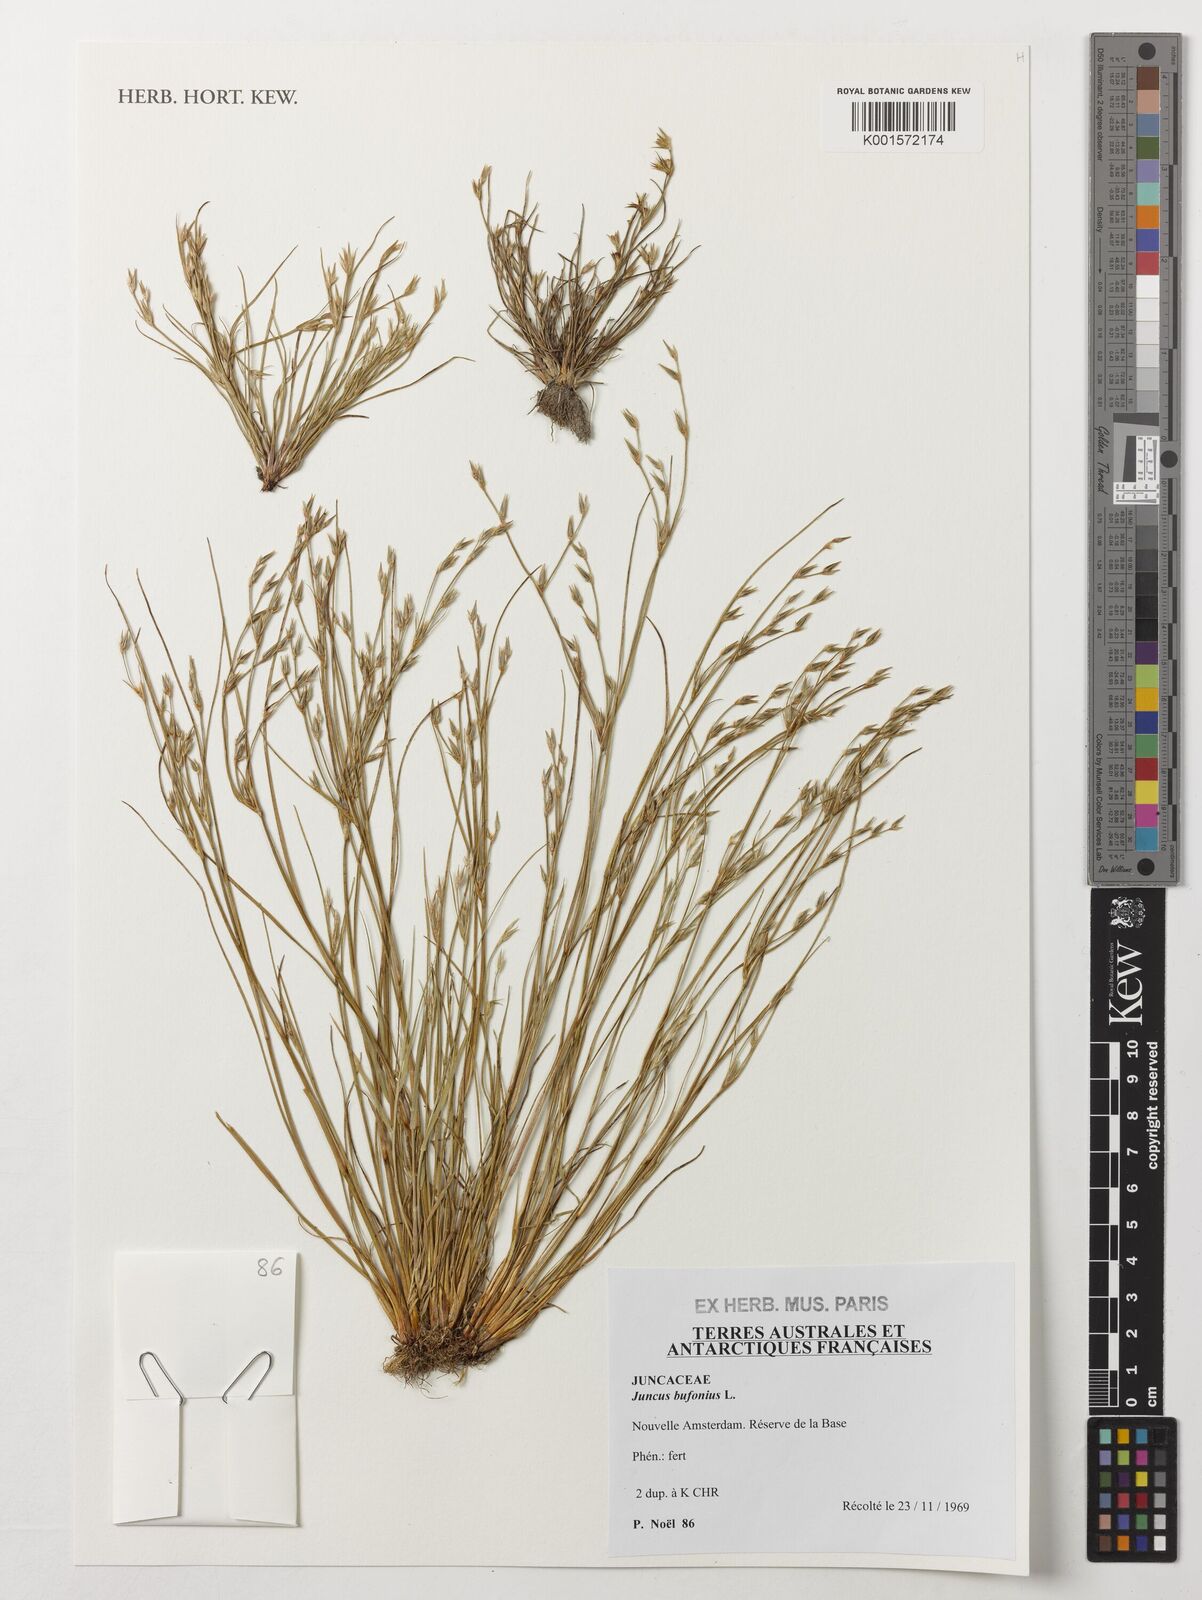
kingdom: Plantae
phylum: Tracheophyta
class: Liliopsida
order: Poales
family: Juncaceae
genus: Juncus
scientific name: Juncus bufonius
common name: Toad rush
